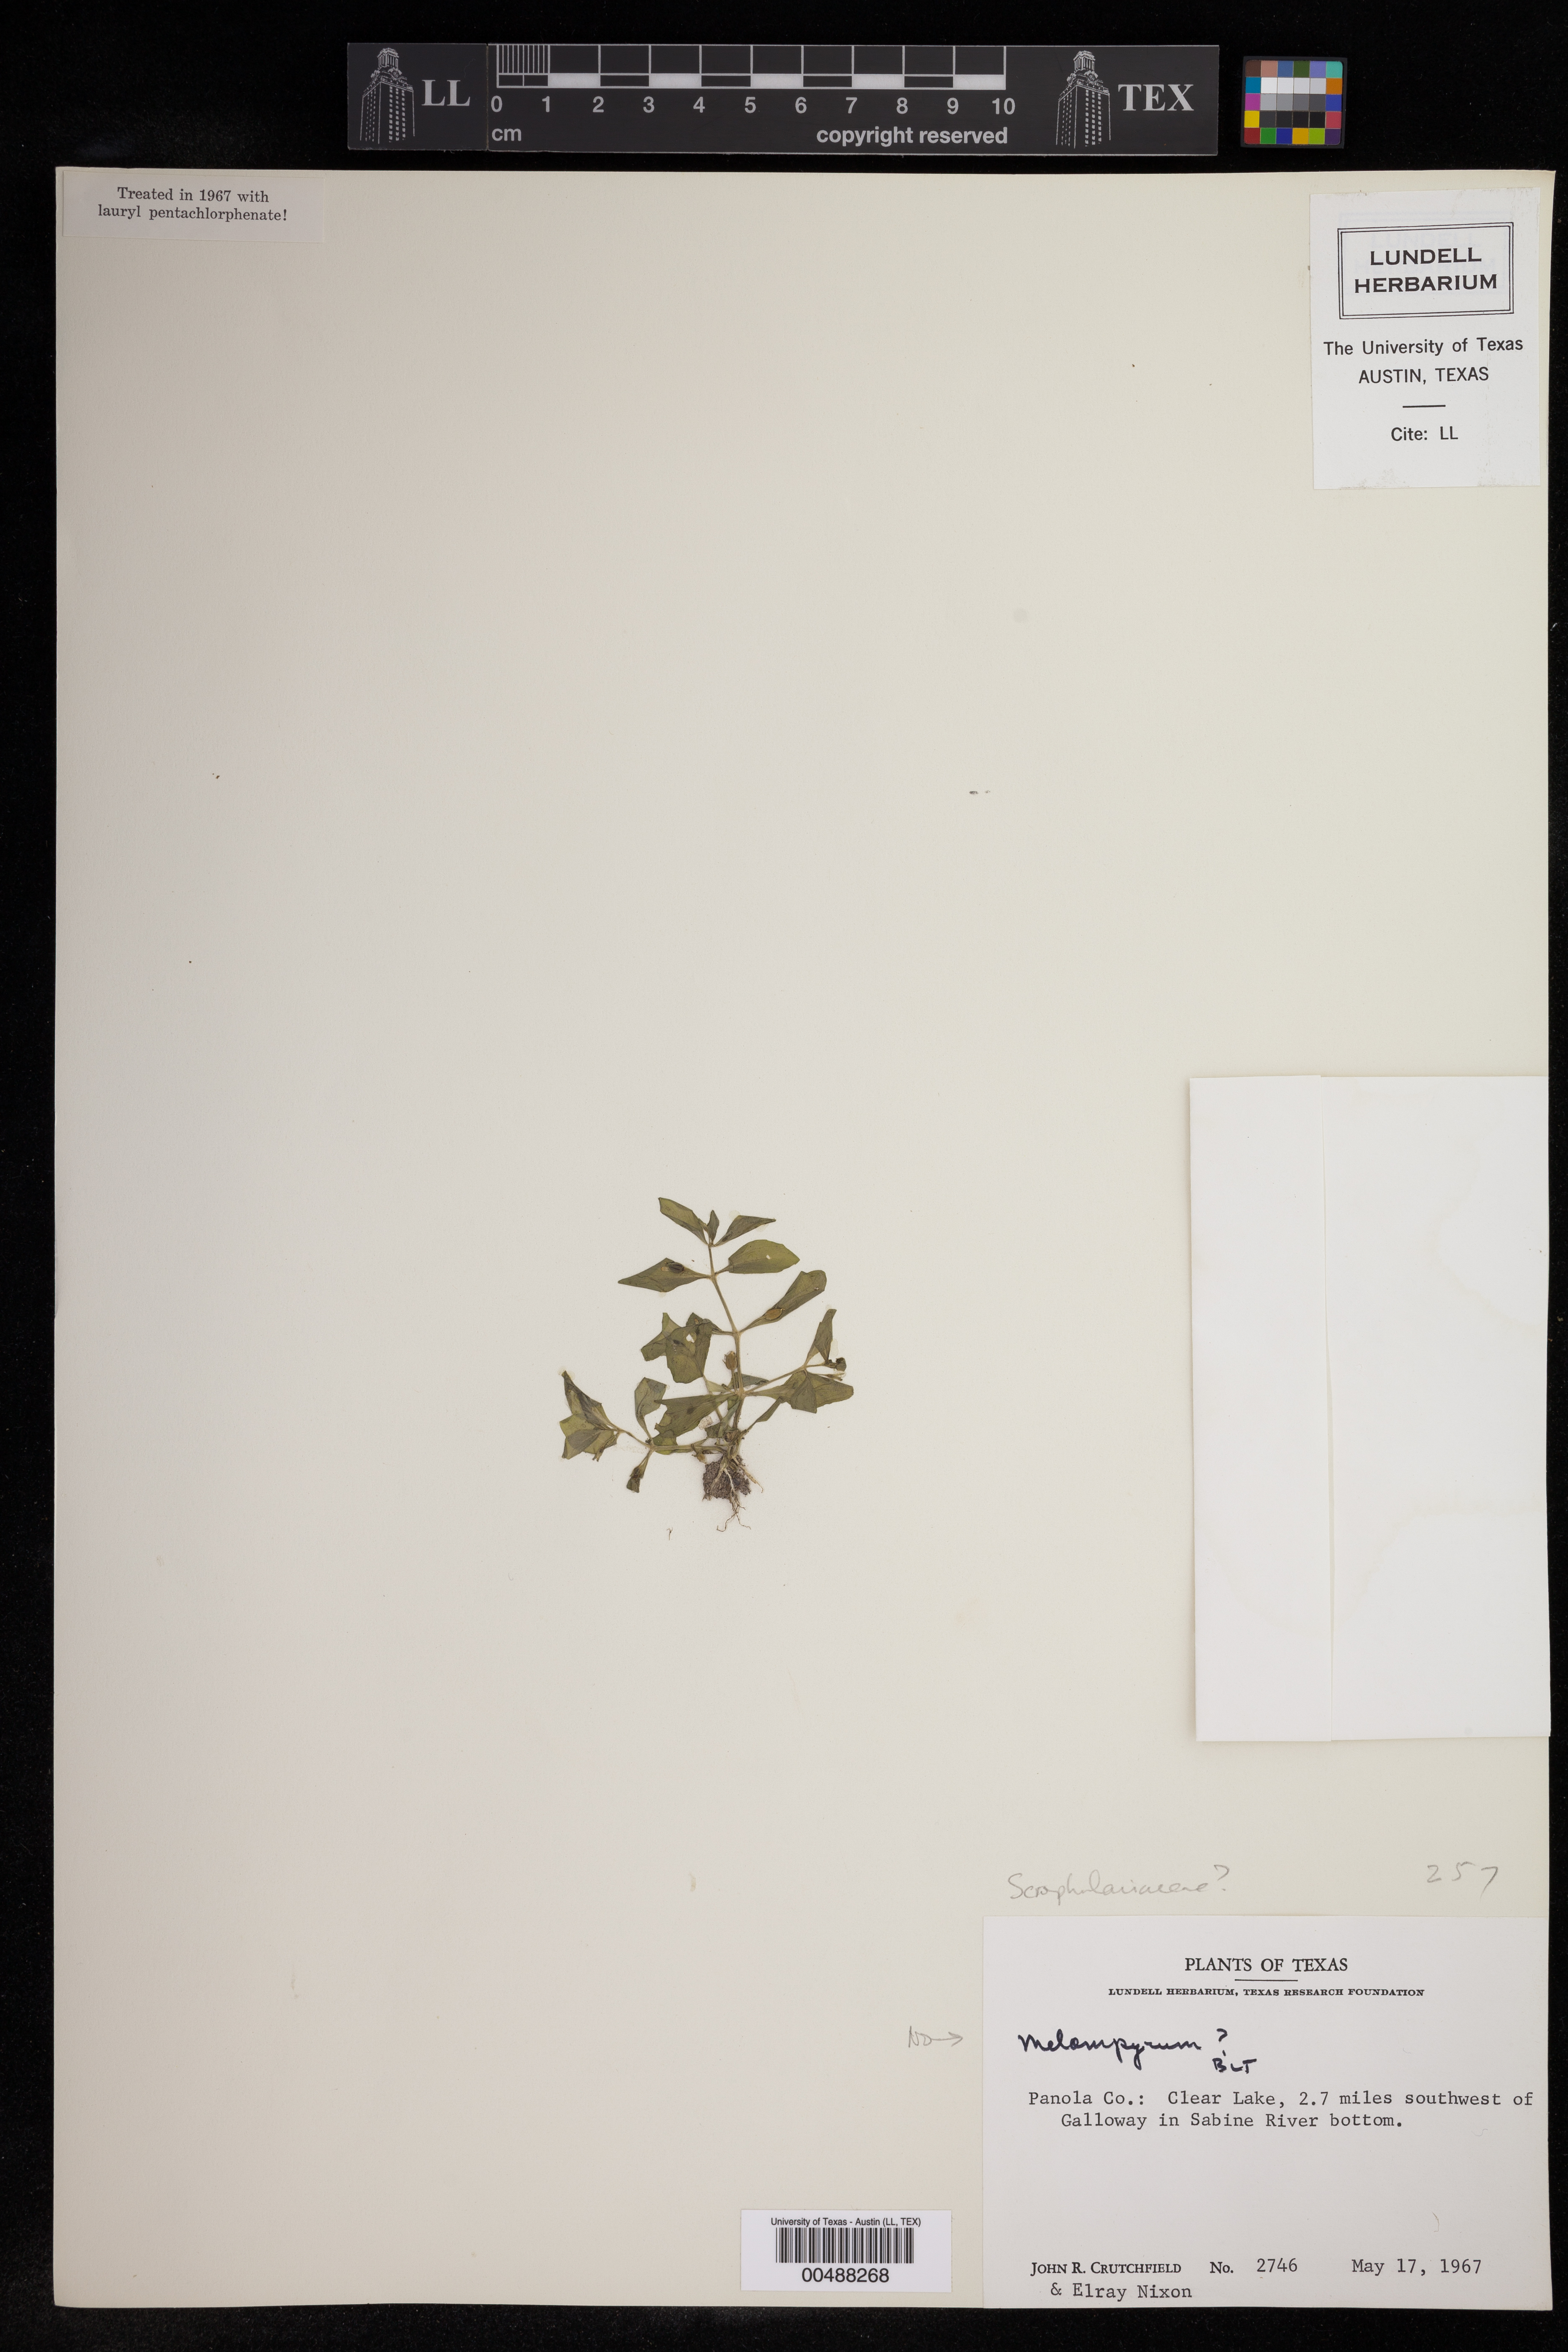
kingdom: Plantae
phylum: Tracheophyta
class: Magnoliopsida
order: Lamiales
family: Scrophulariaceae
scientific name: Scrophulariaceae
